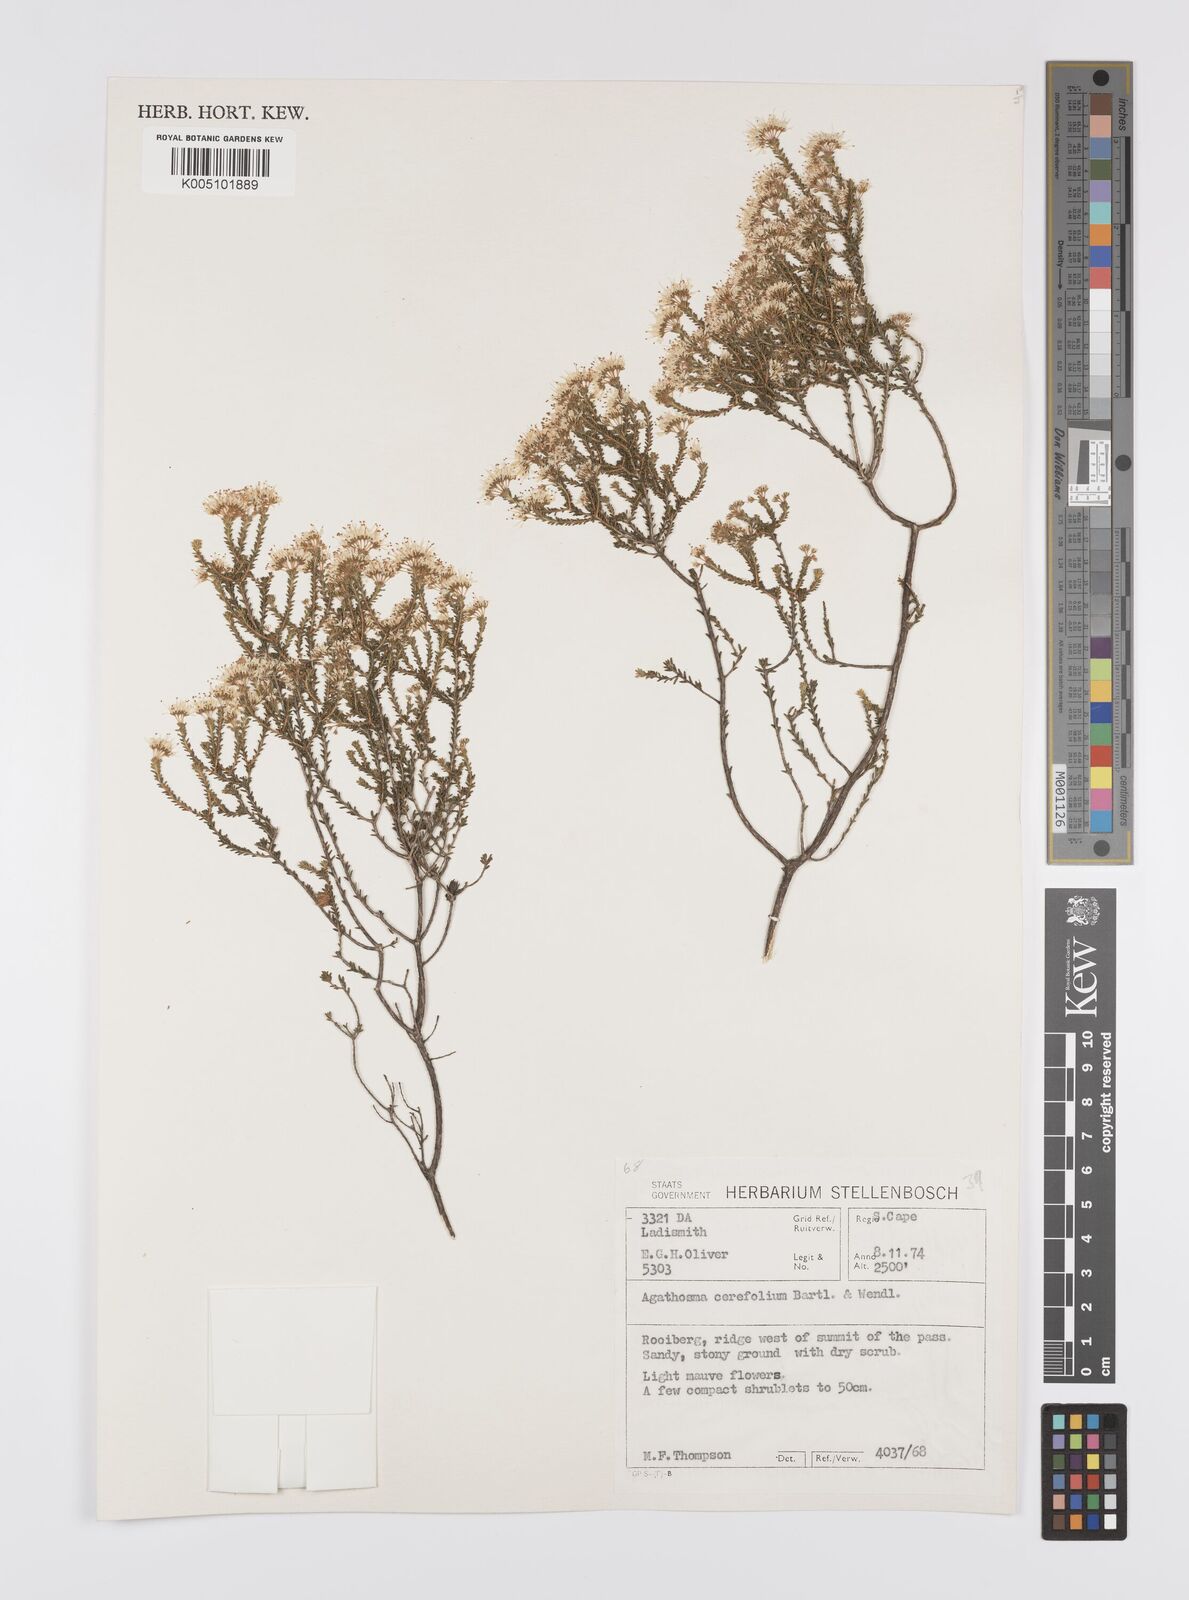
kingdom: Plantae
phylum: Tracheophyta
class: Magnoliopsida
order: Sapindales
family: Rutaceae
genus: Agathosma
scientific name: Agathosma cerefolia
